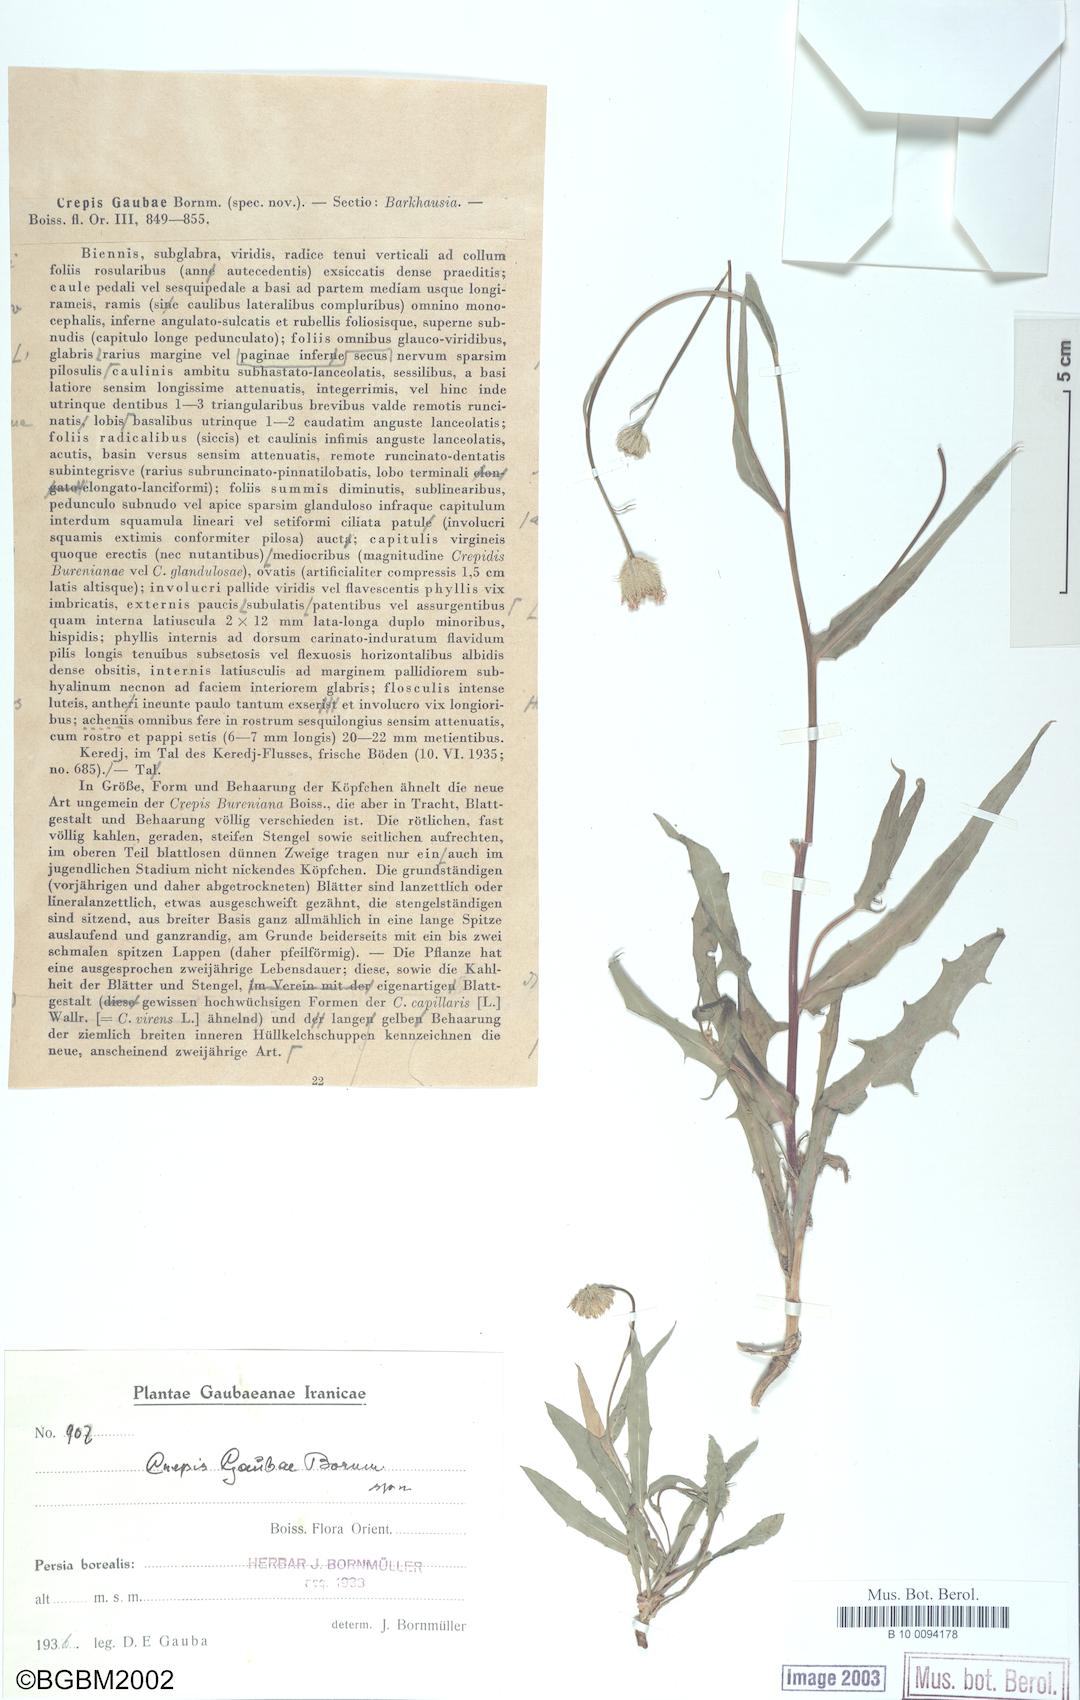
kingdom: Plantae
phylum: Tracheophyta
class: Magnoliopsida
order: Asterales
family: Asteraceae
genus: Crepis
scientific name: Crepis gaubae
